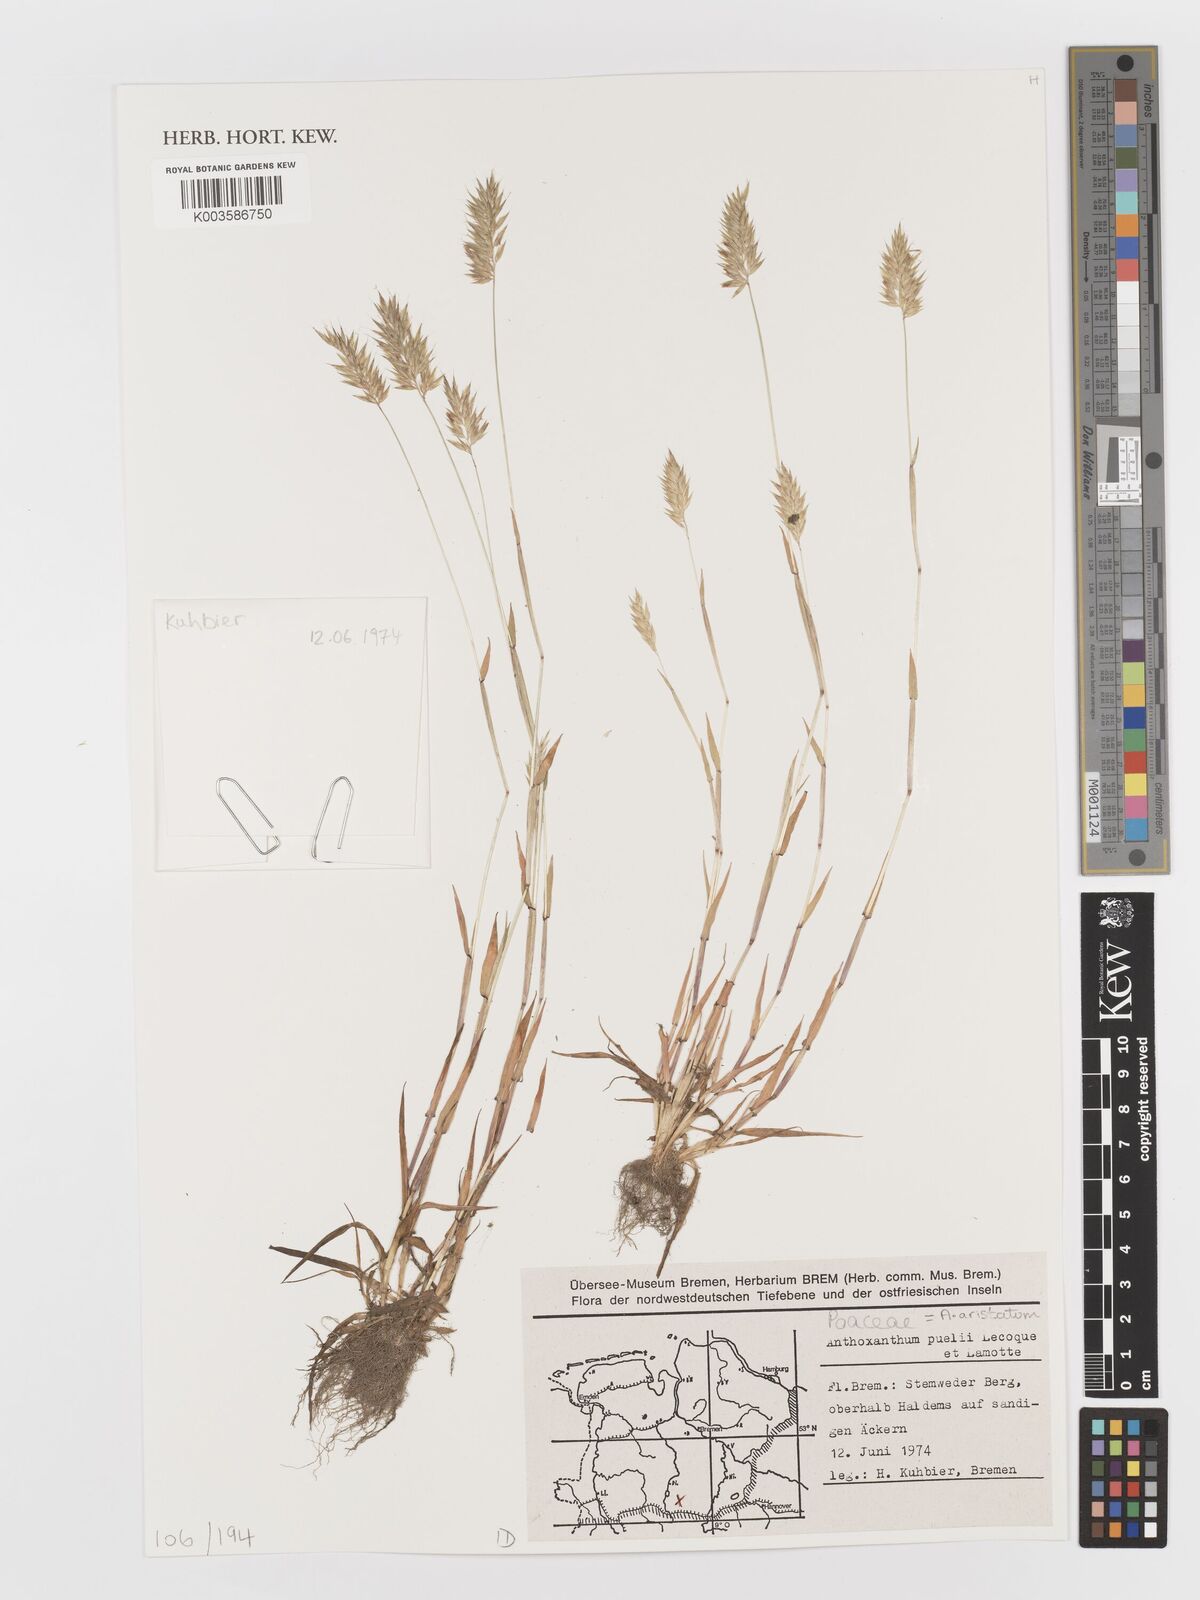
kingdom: Plantae
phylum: Tracheophyta
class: Liliopsida
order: Poales
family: Poaceae
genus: Anthoxanthum
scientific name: Anthoxanthum aristatum
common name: Annual vernal-grass
